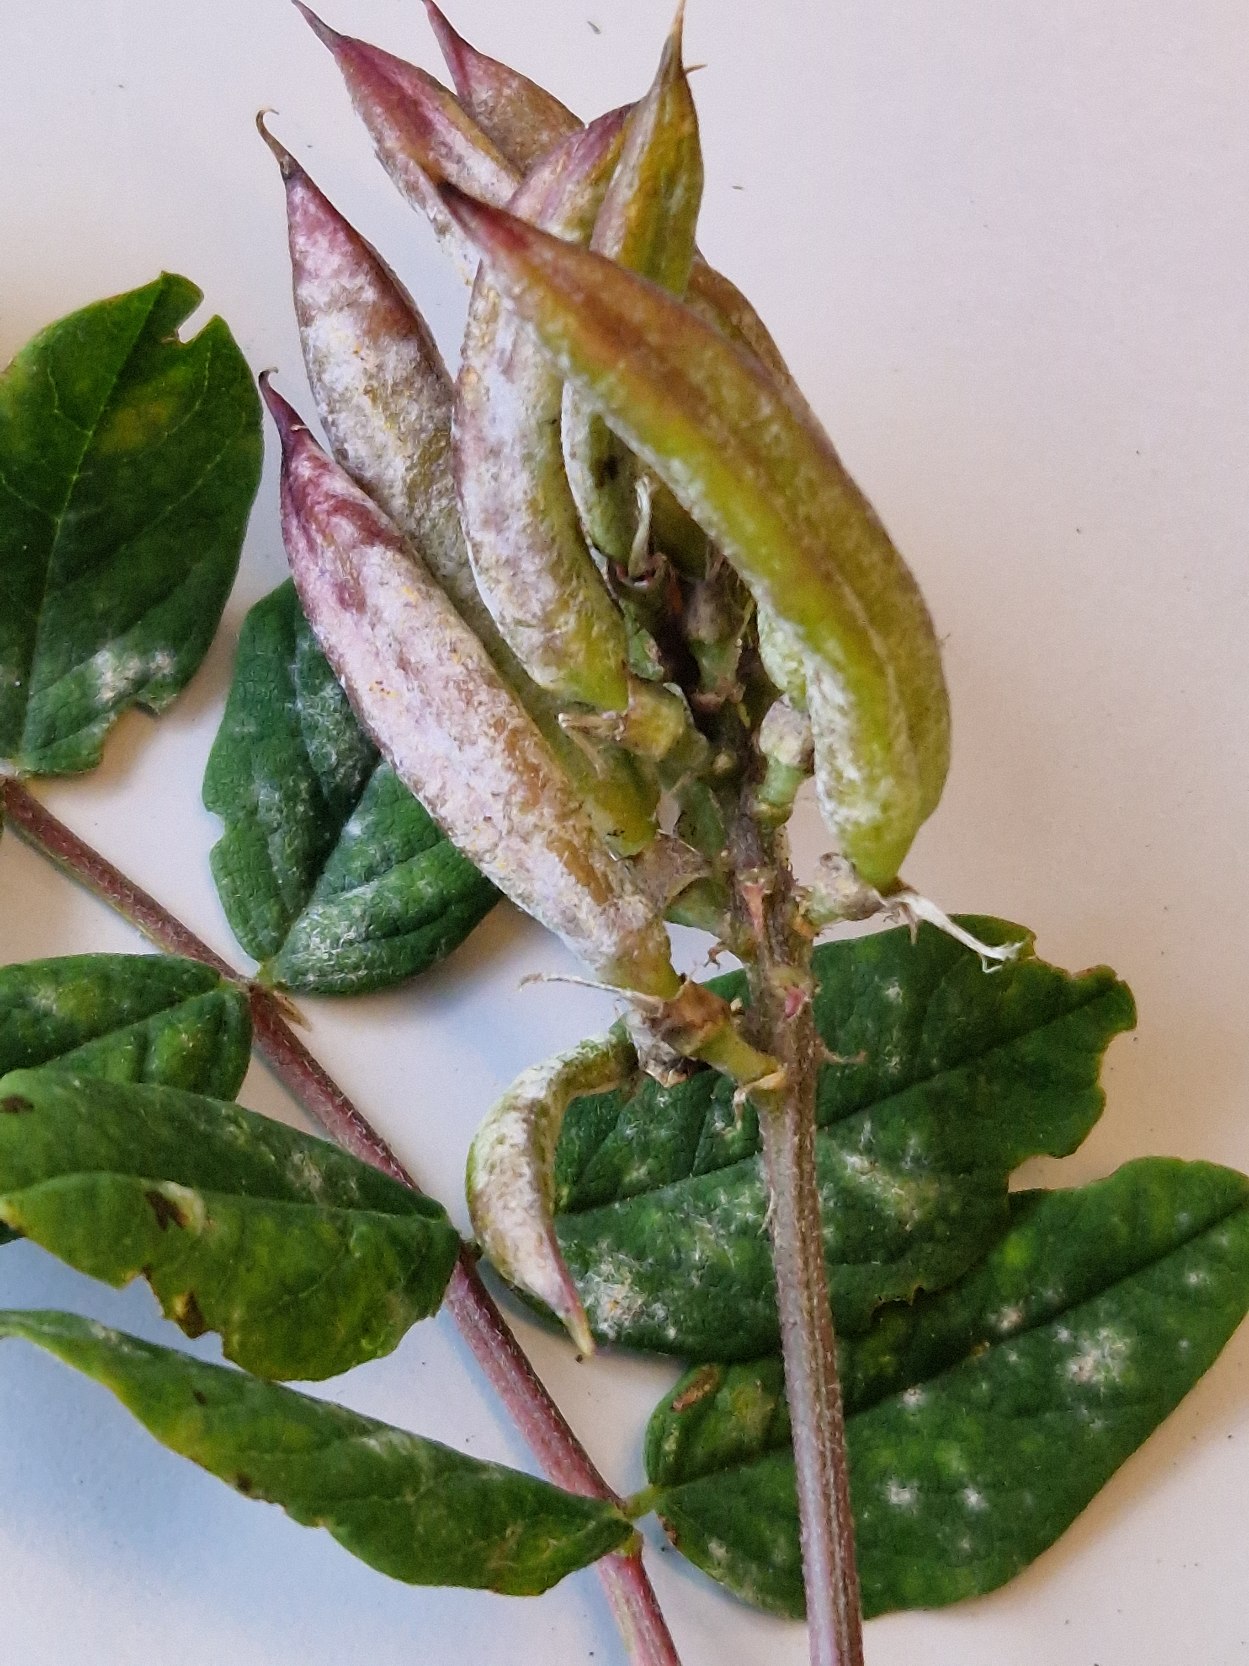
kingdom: Plantae
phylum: Tracheophyta
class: Magnoliopsida
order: Fabales
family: Fabaceae
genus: Astragalus
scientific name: Astragalus glycyphyllos
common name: Sød astragel
